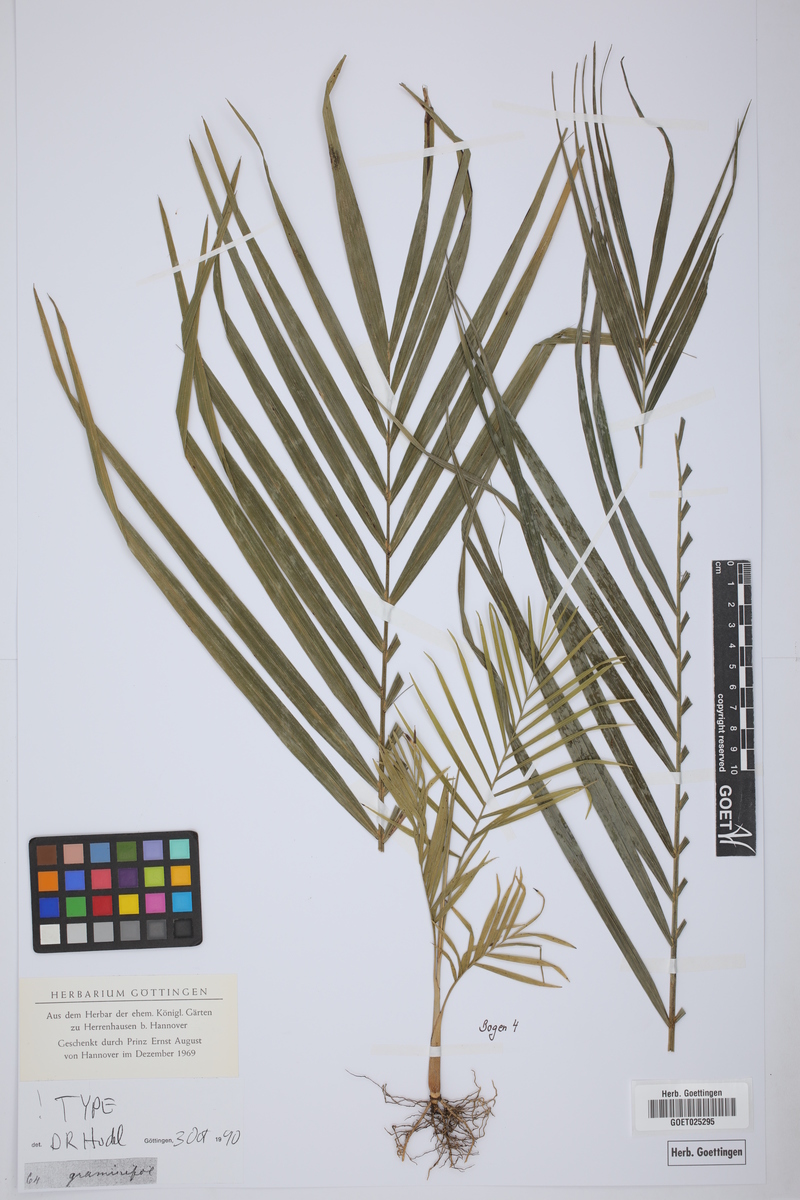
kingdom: Plantae
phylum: Tracheophyta
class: Liliopsida
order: Arecales
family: Arecaceae
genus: Chamaedorea
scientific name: Chamaedorea graminifolia
